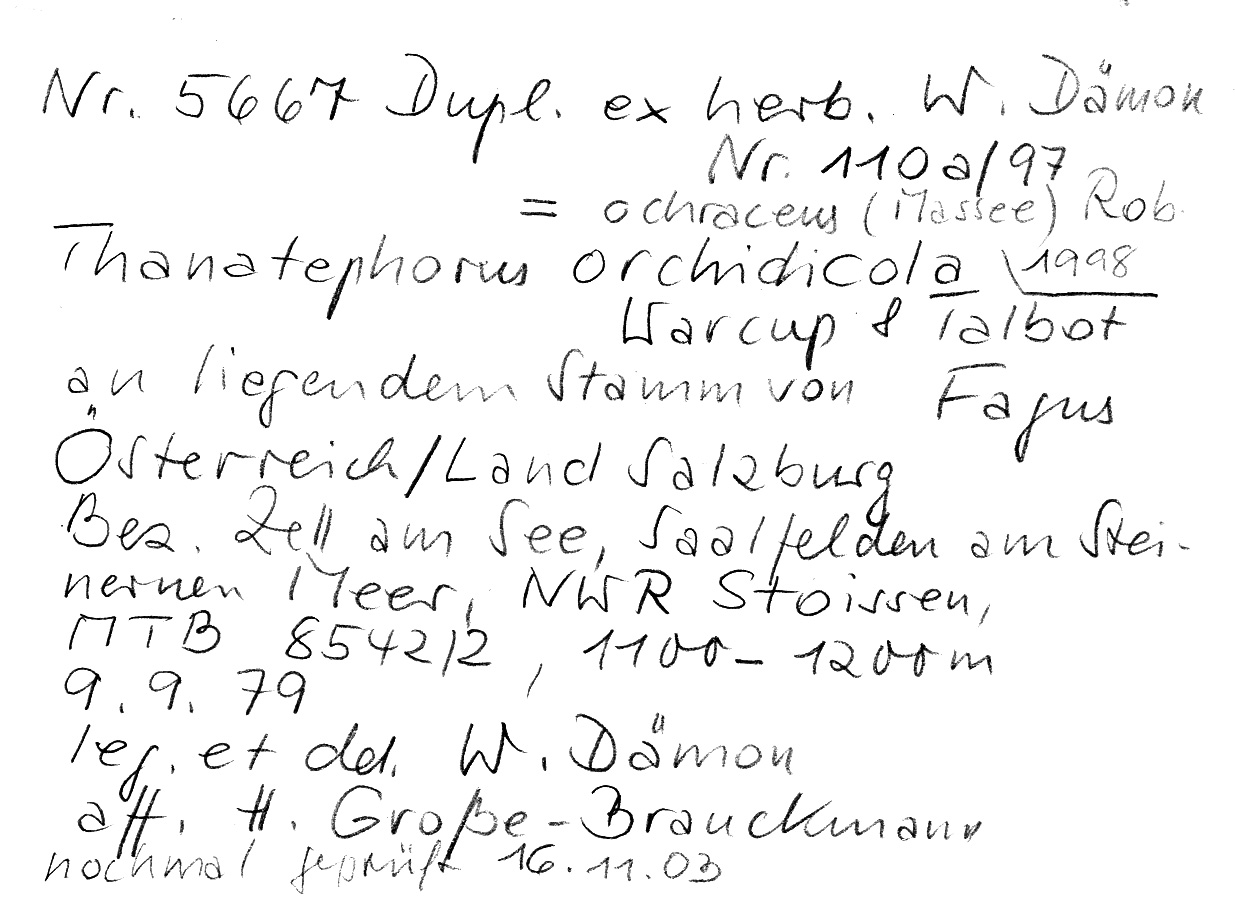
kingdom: Fungi
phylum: Basidiomycota
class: Agaricomycetes
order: Cantharellales
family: Ceratobasidiaceae
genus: Rhizoctonia
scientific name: Rhizoctonia ochracea
